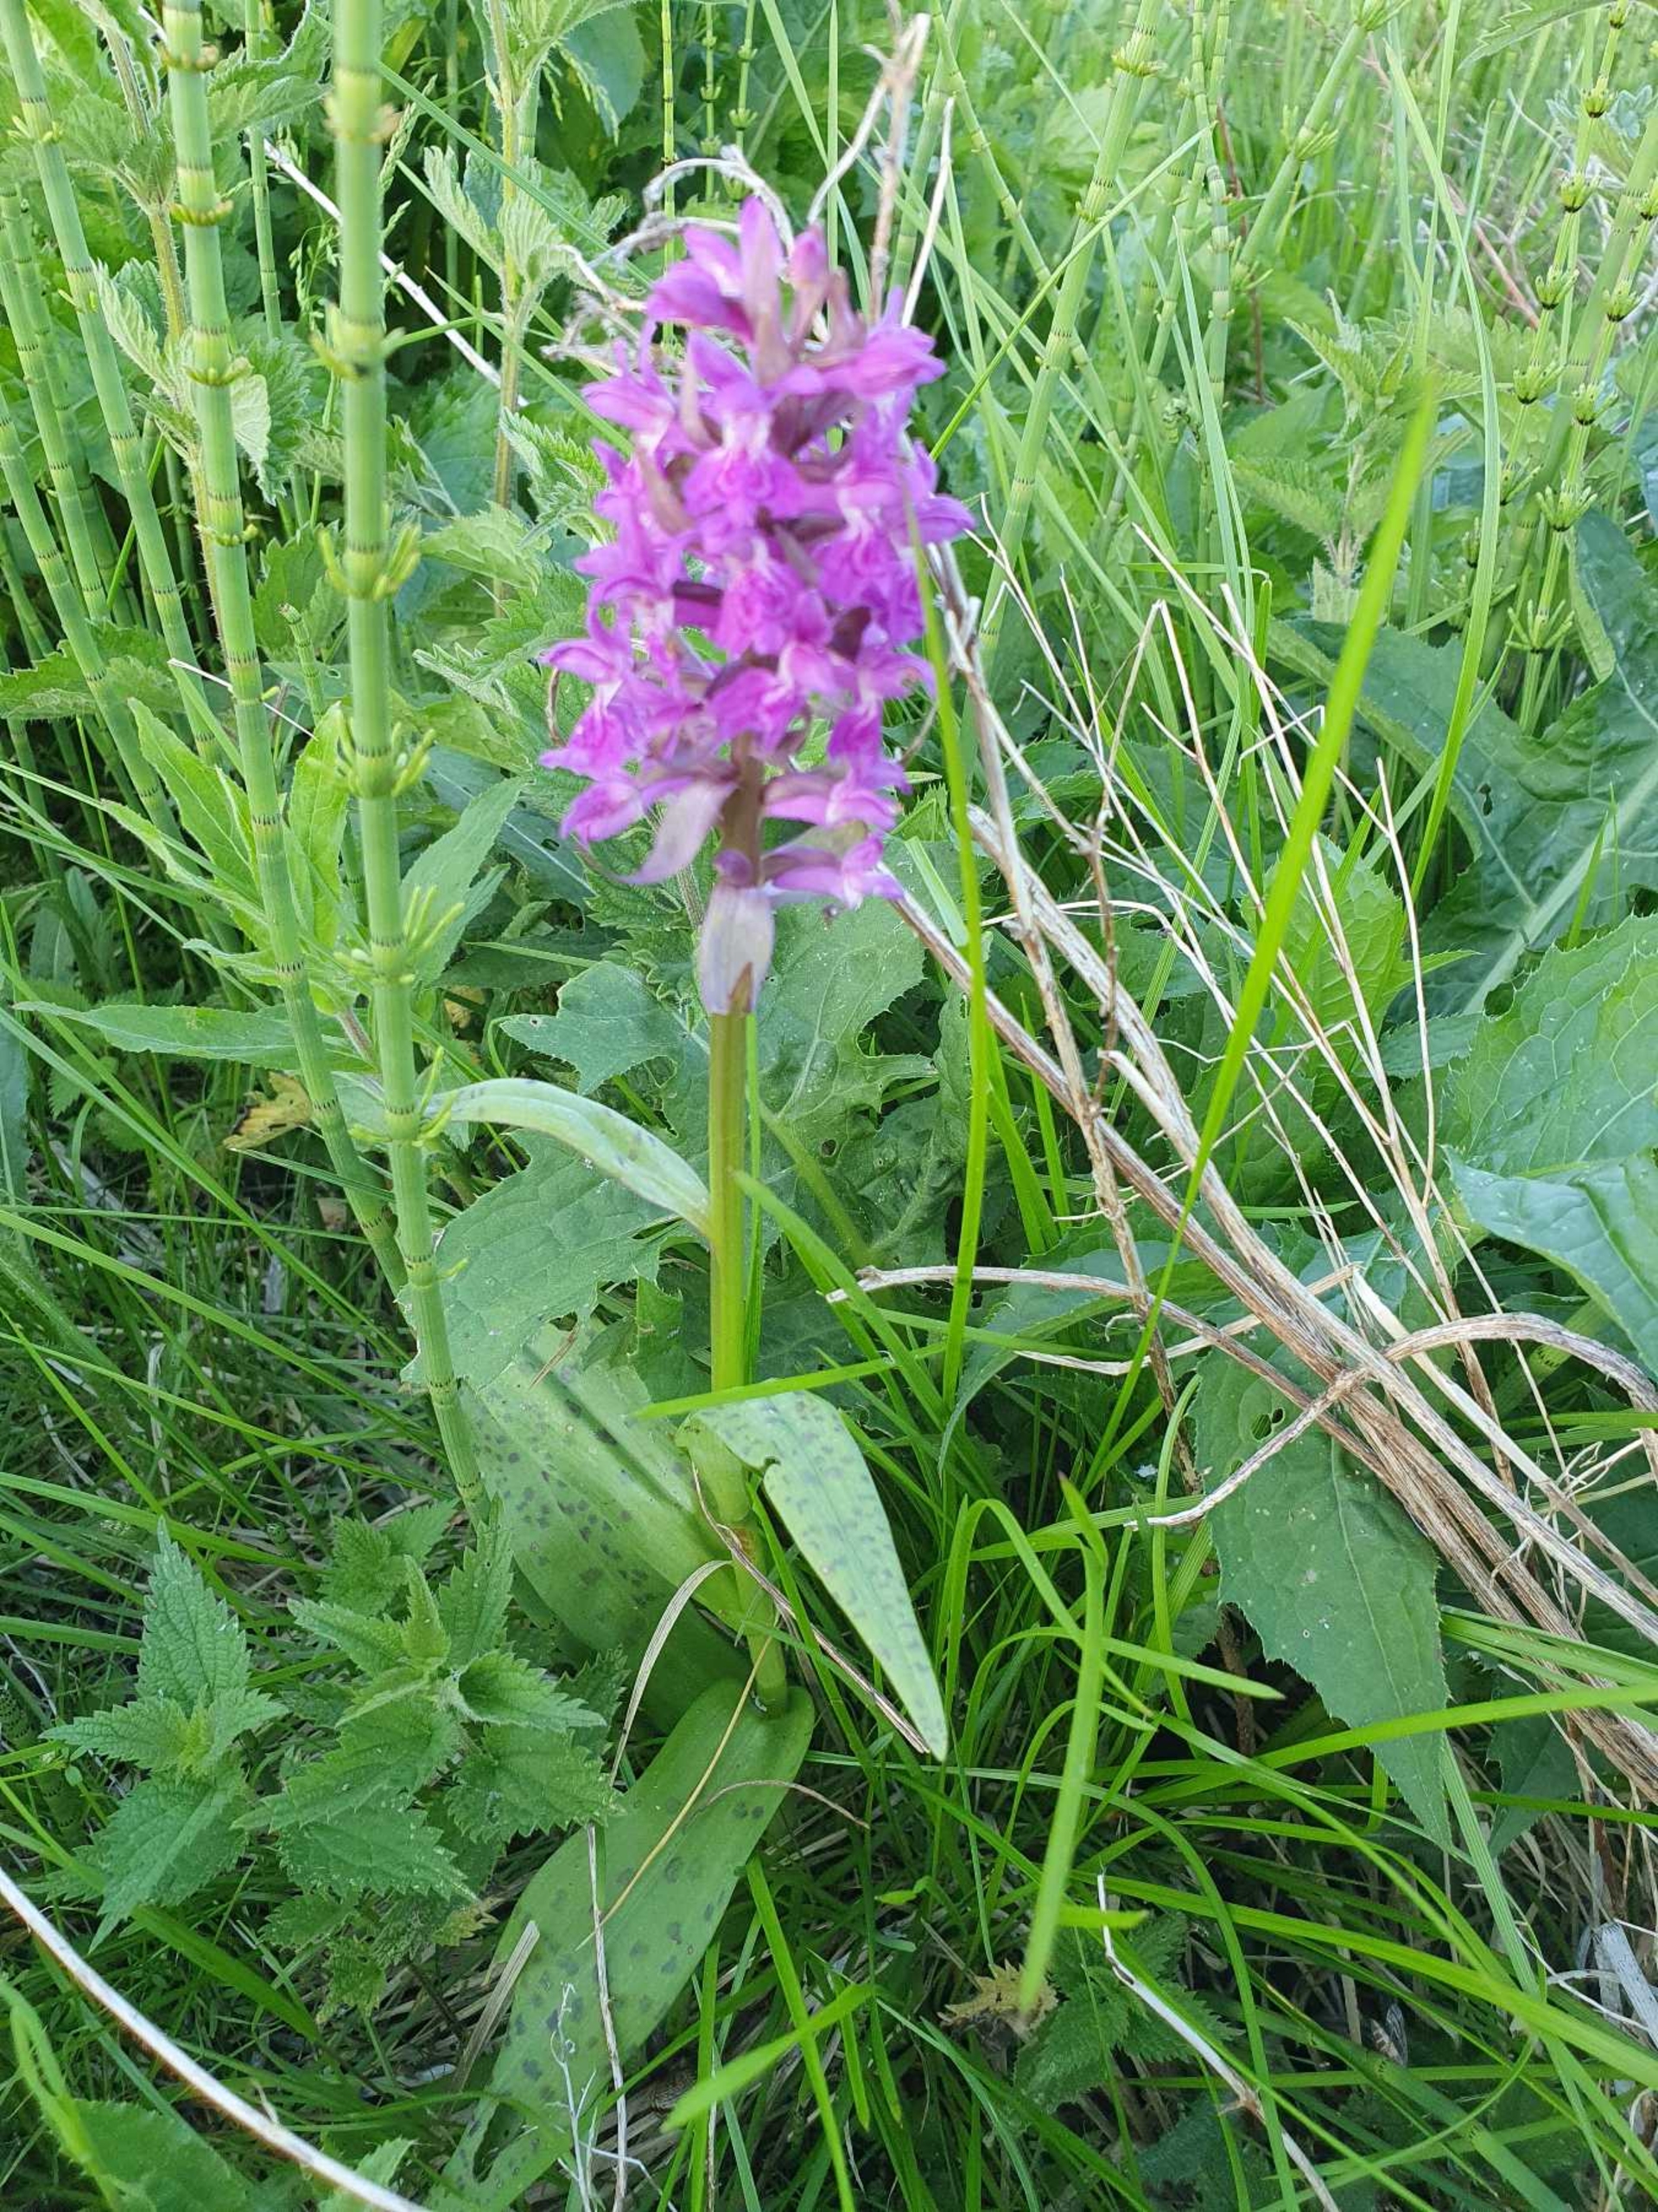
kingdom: Plantae
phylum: Tracheophyta
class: Liliopsida
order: Asparagales
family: Orchidaceae
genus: Dactylorhiza
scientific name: Dactylorhiza majalis
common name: Maj-gøgeurt
